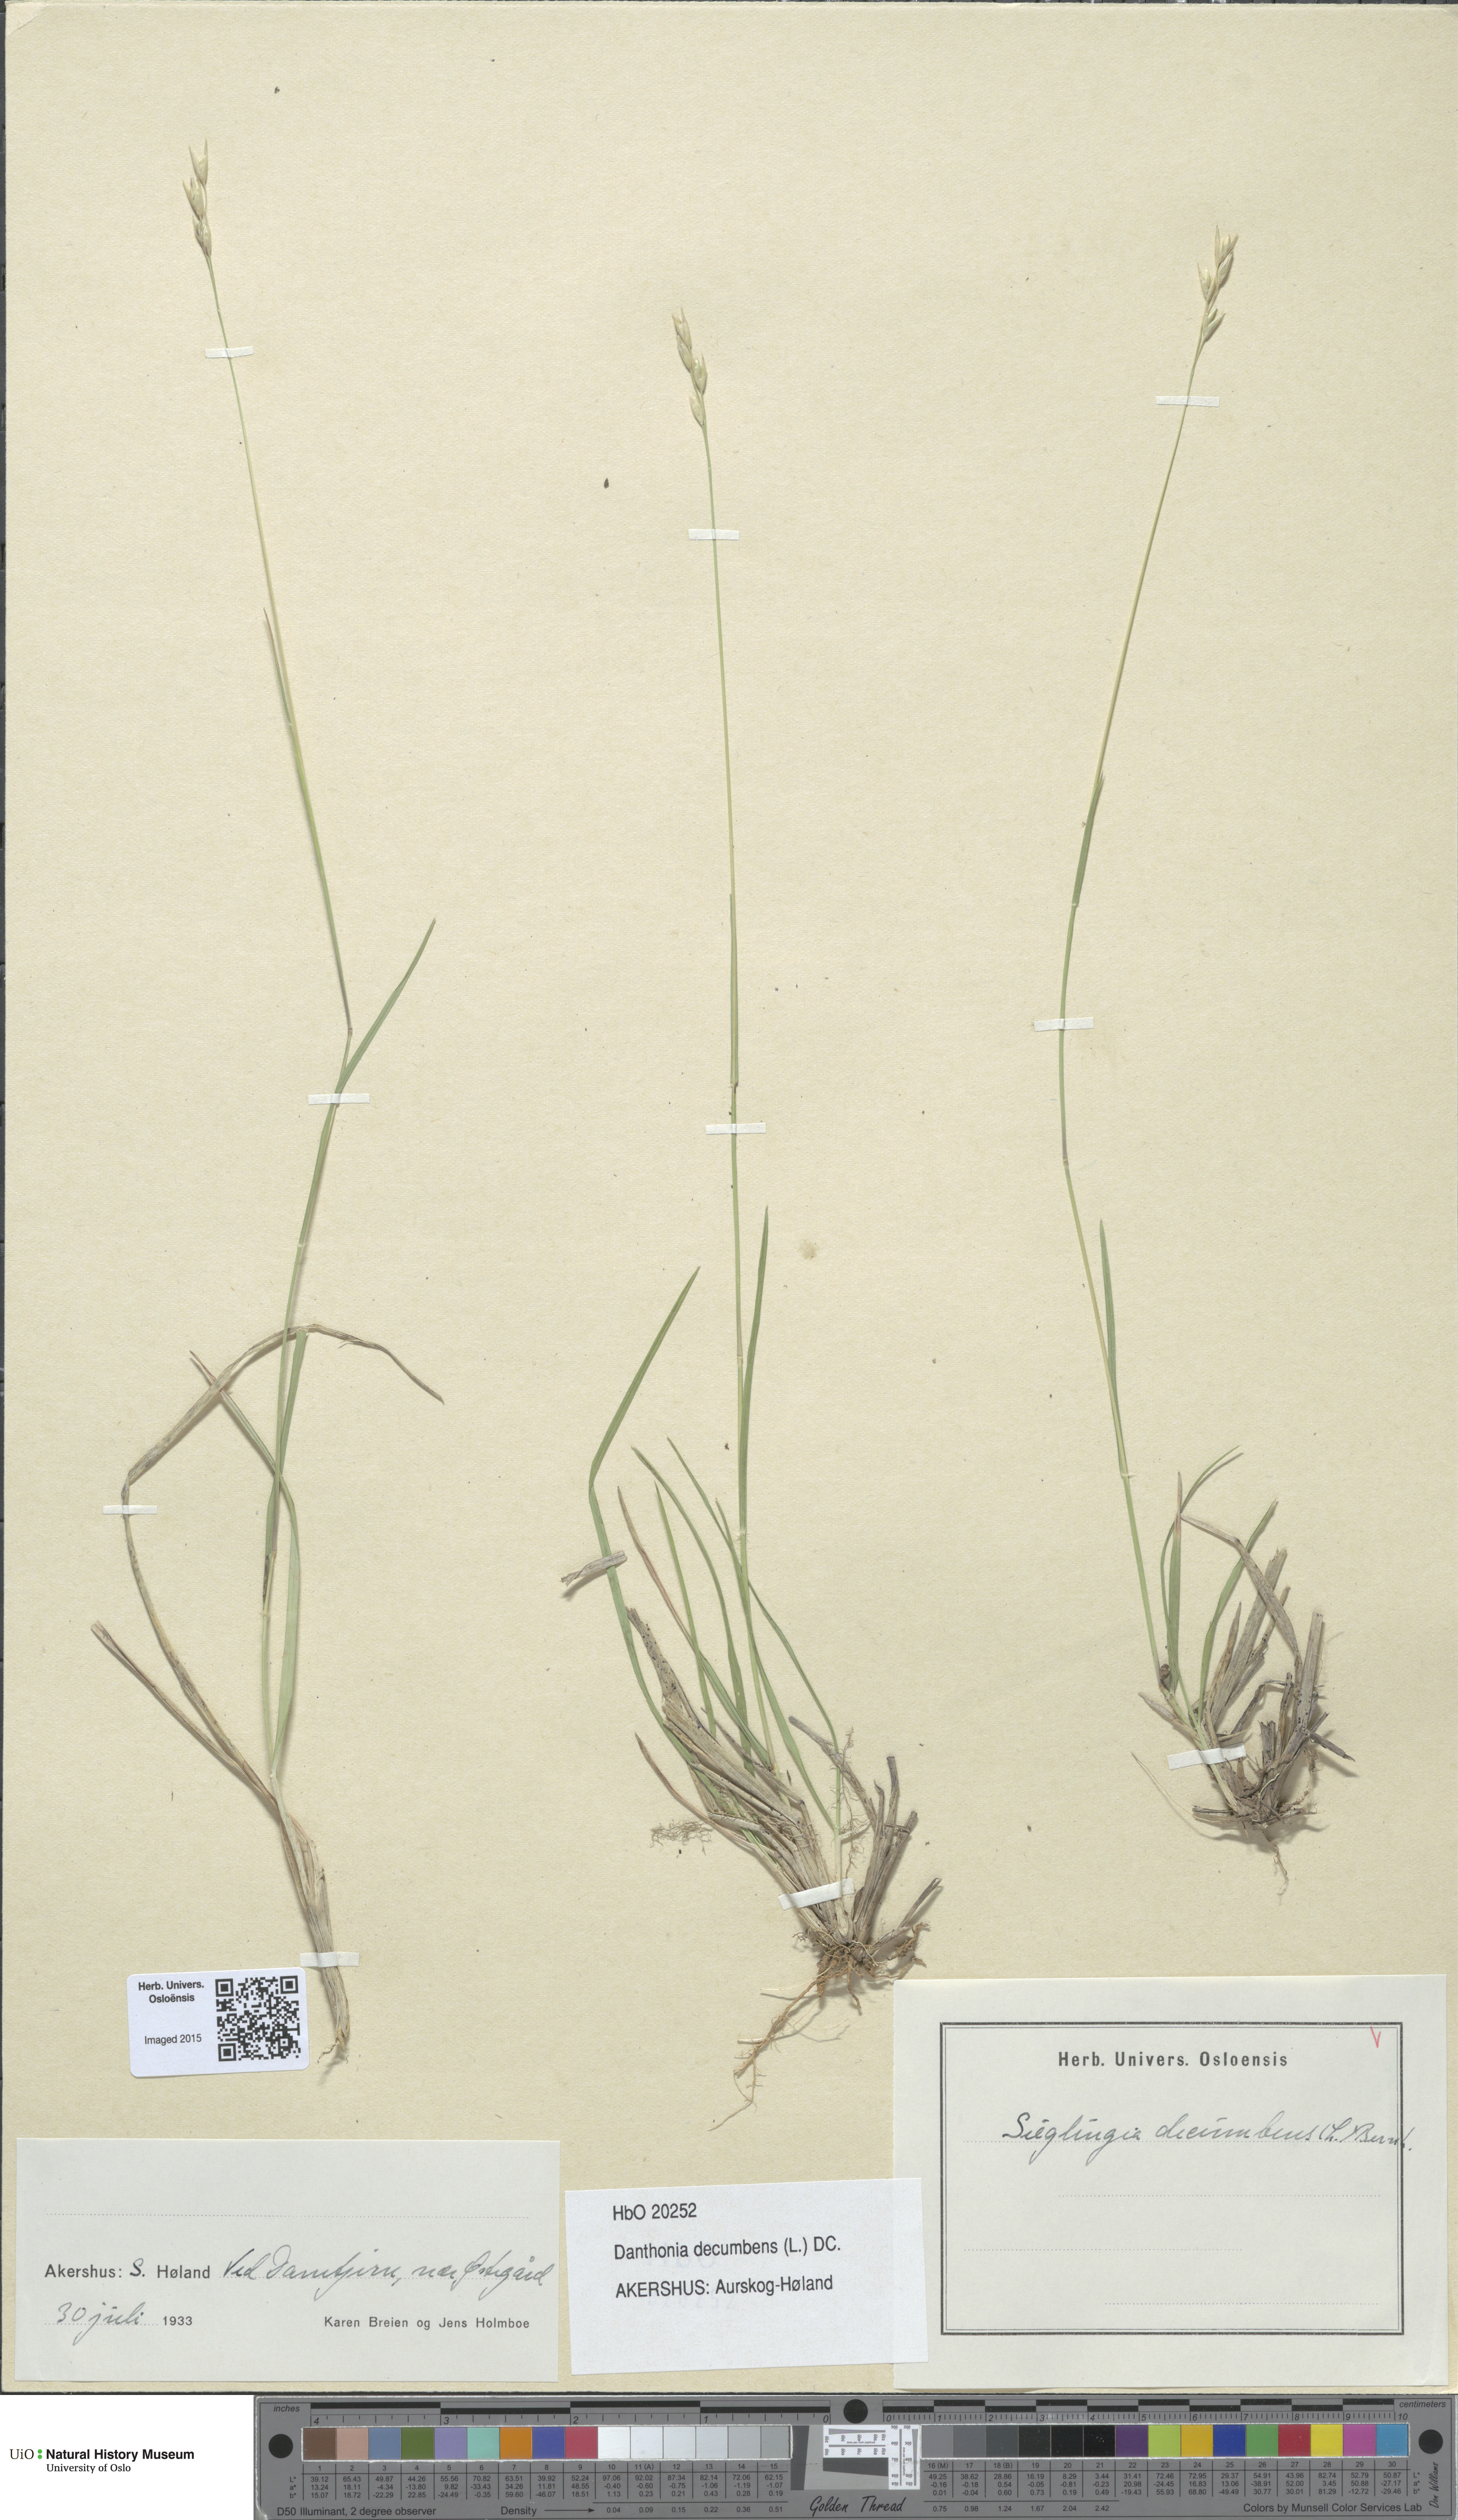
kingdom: Plantae
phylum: Tracheophyta
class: Liliopsida
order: Poales
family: Poaceae
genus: Danthonia
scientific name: Danthonia decumbens
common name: Common heathgrass
